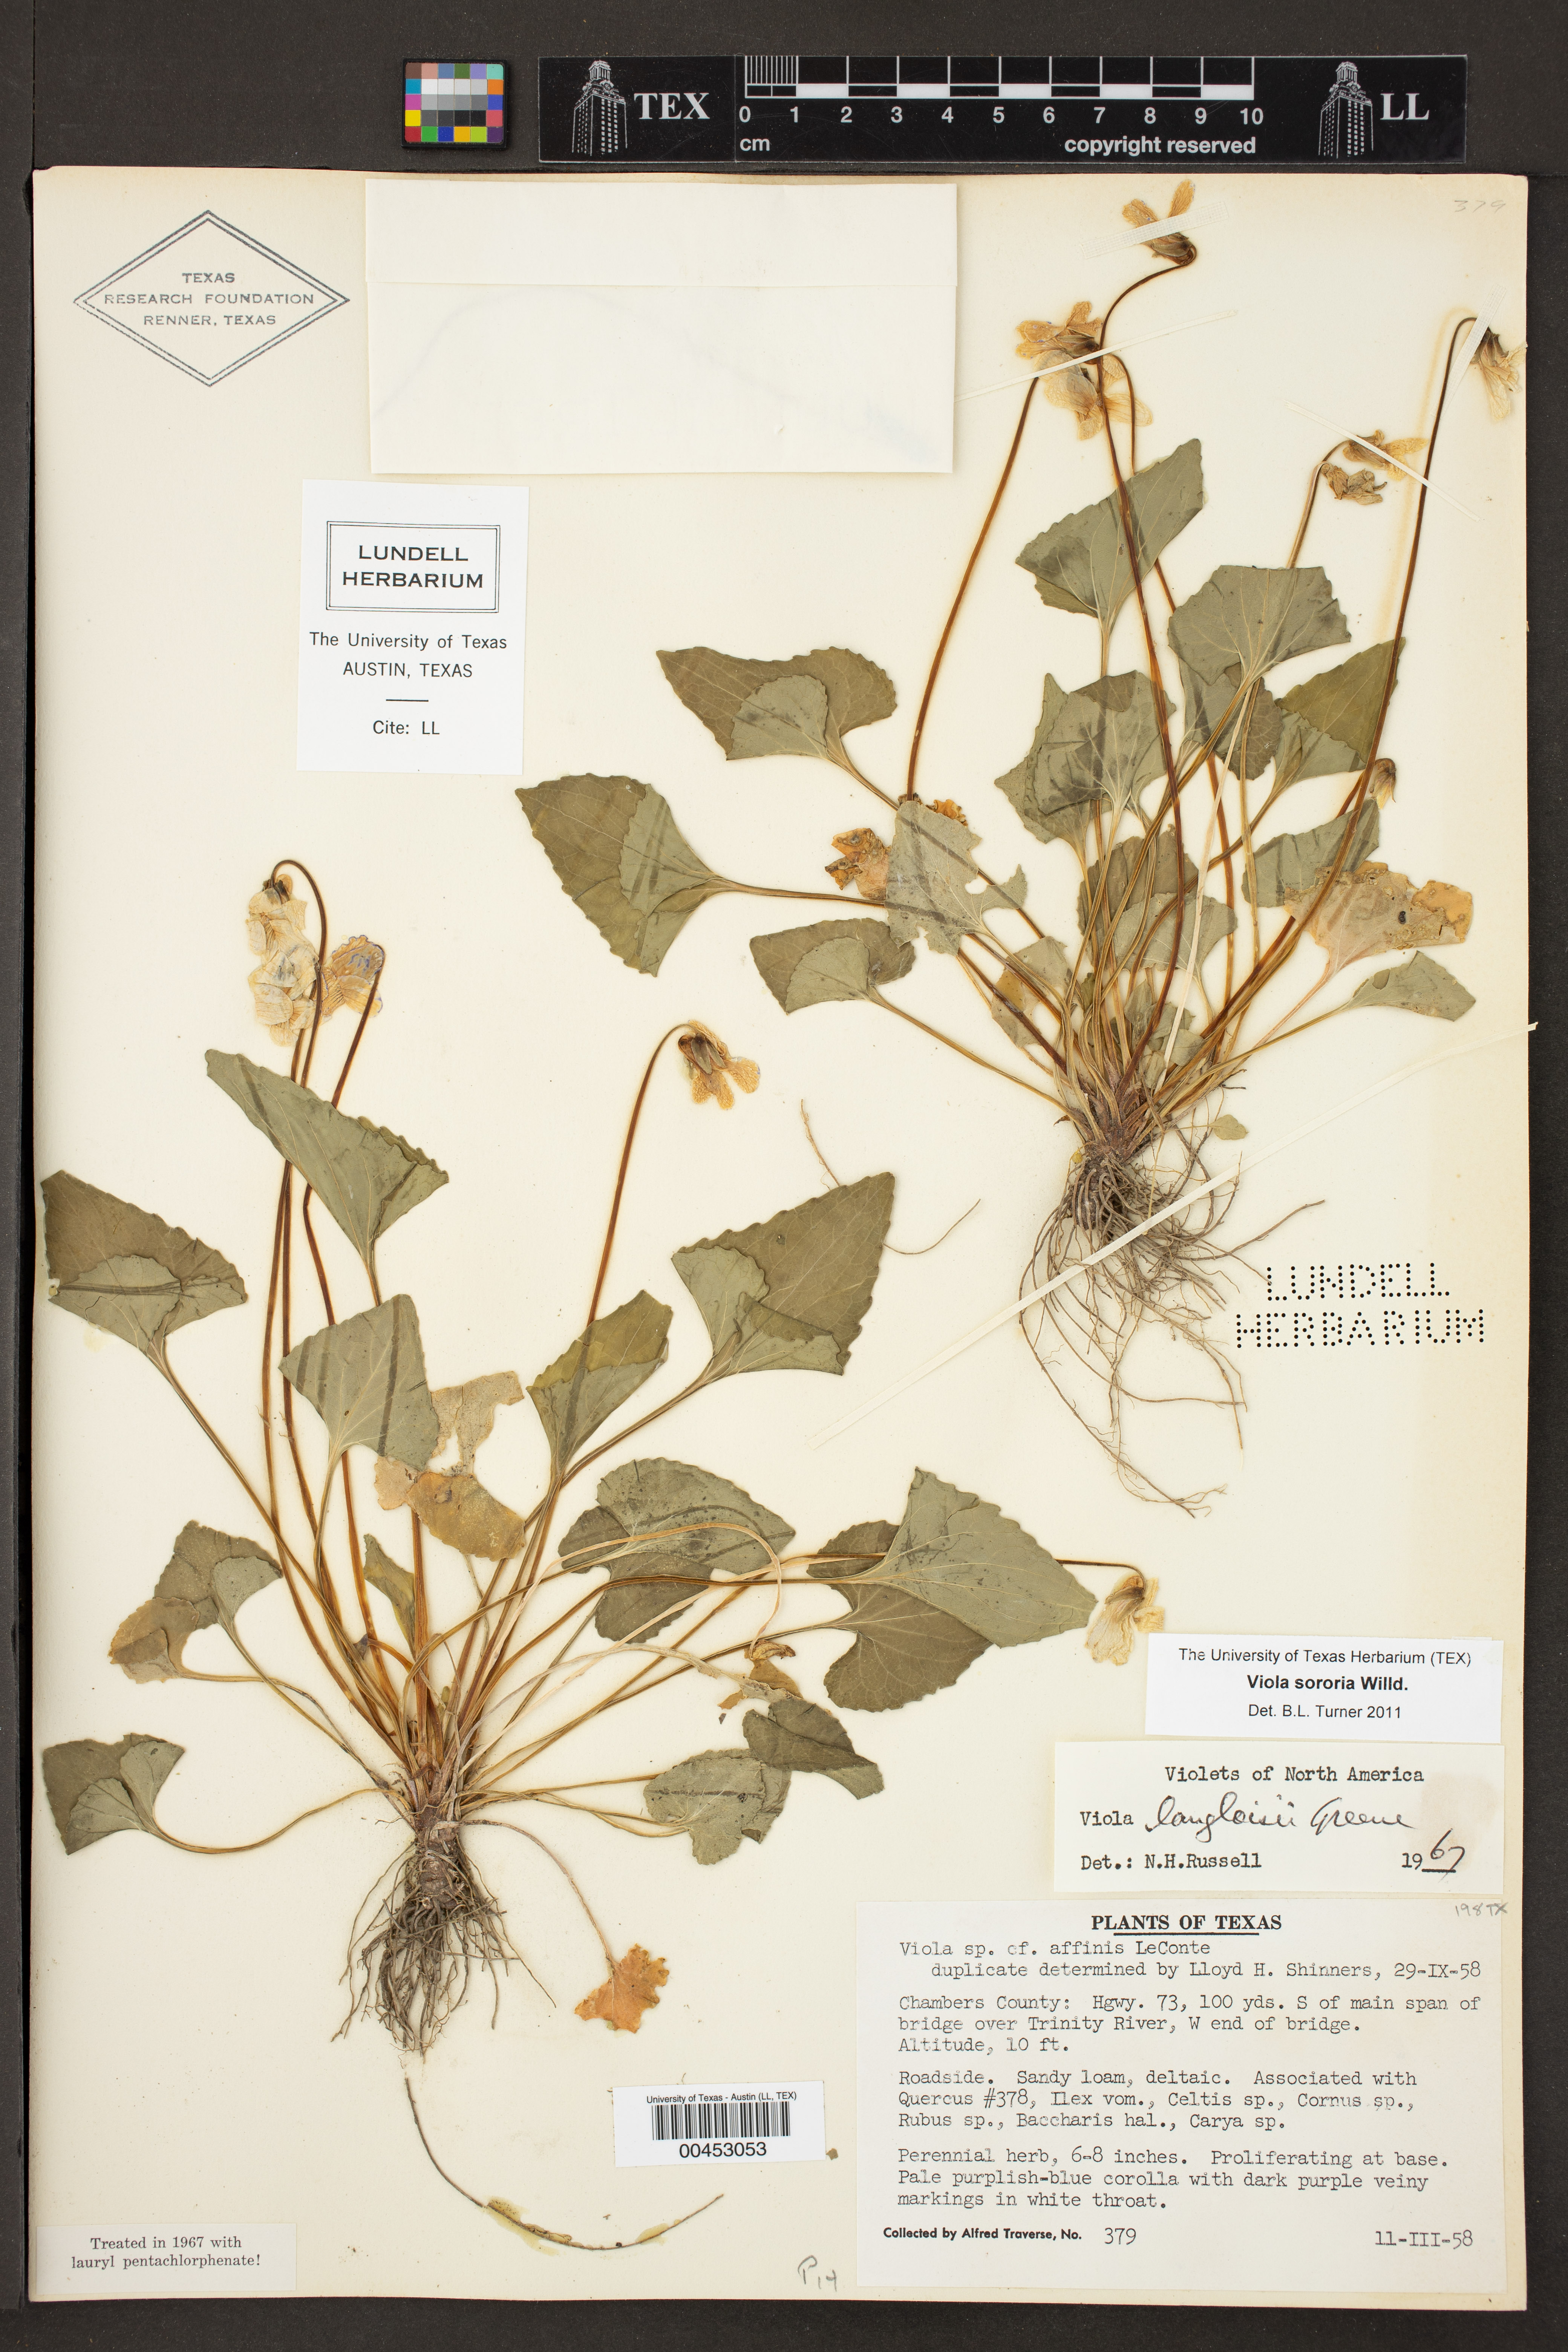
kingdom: Plantae
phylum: Tracheophyta
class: Magnoliopsida
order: Malpighiales
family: Violaceae
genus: Viola
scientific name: Viola sororia
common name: Dooryard violet
